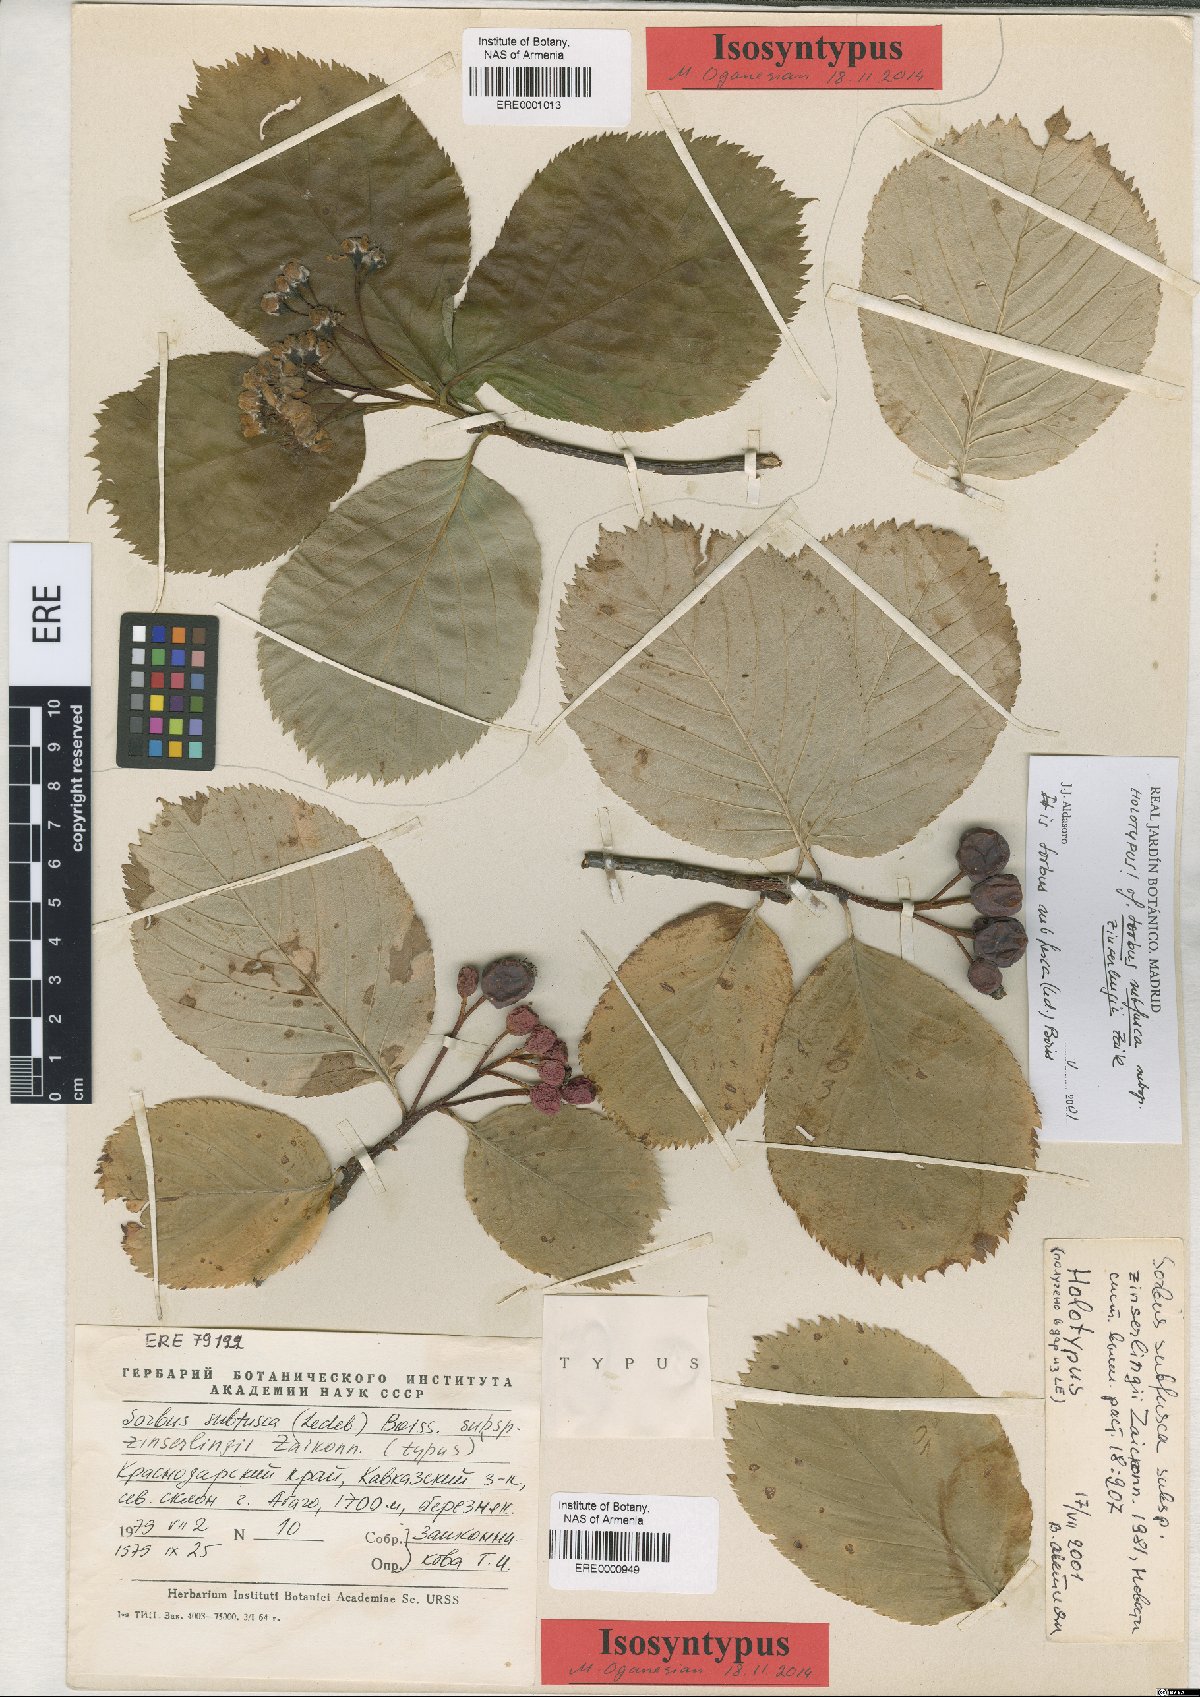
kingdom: Plantae
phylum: Tracheophyta
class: Magnoliopsida
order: Rosales
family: Rosaceae
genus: Sorbus
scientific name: Sorbus subfusca
